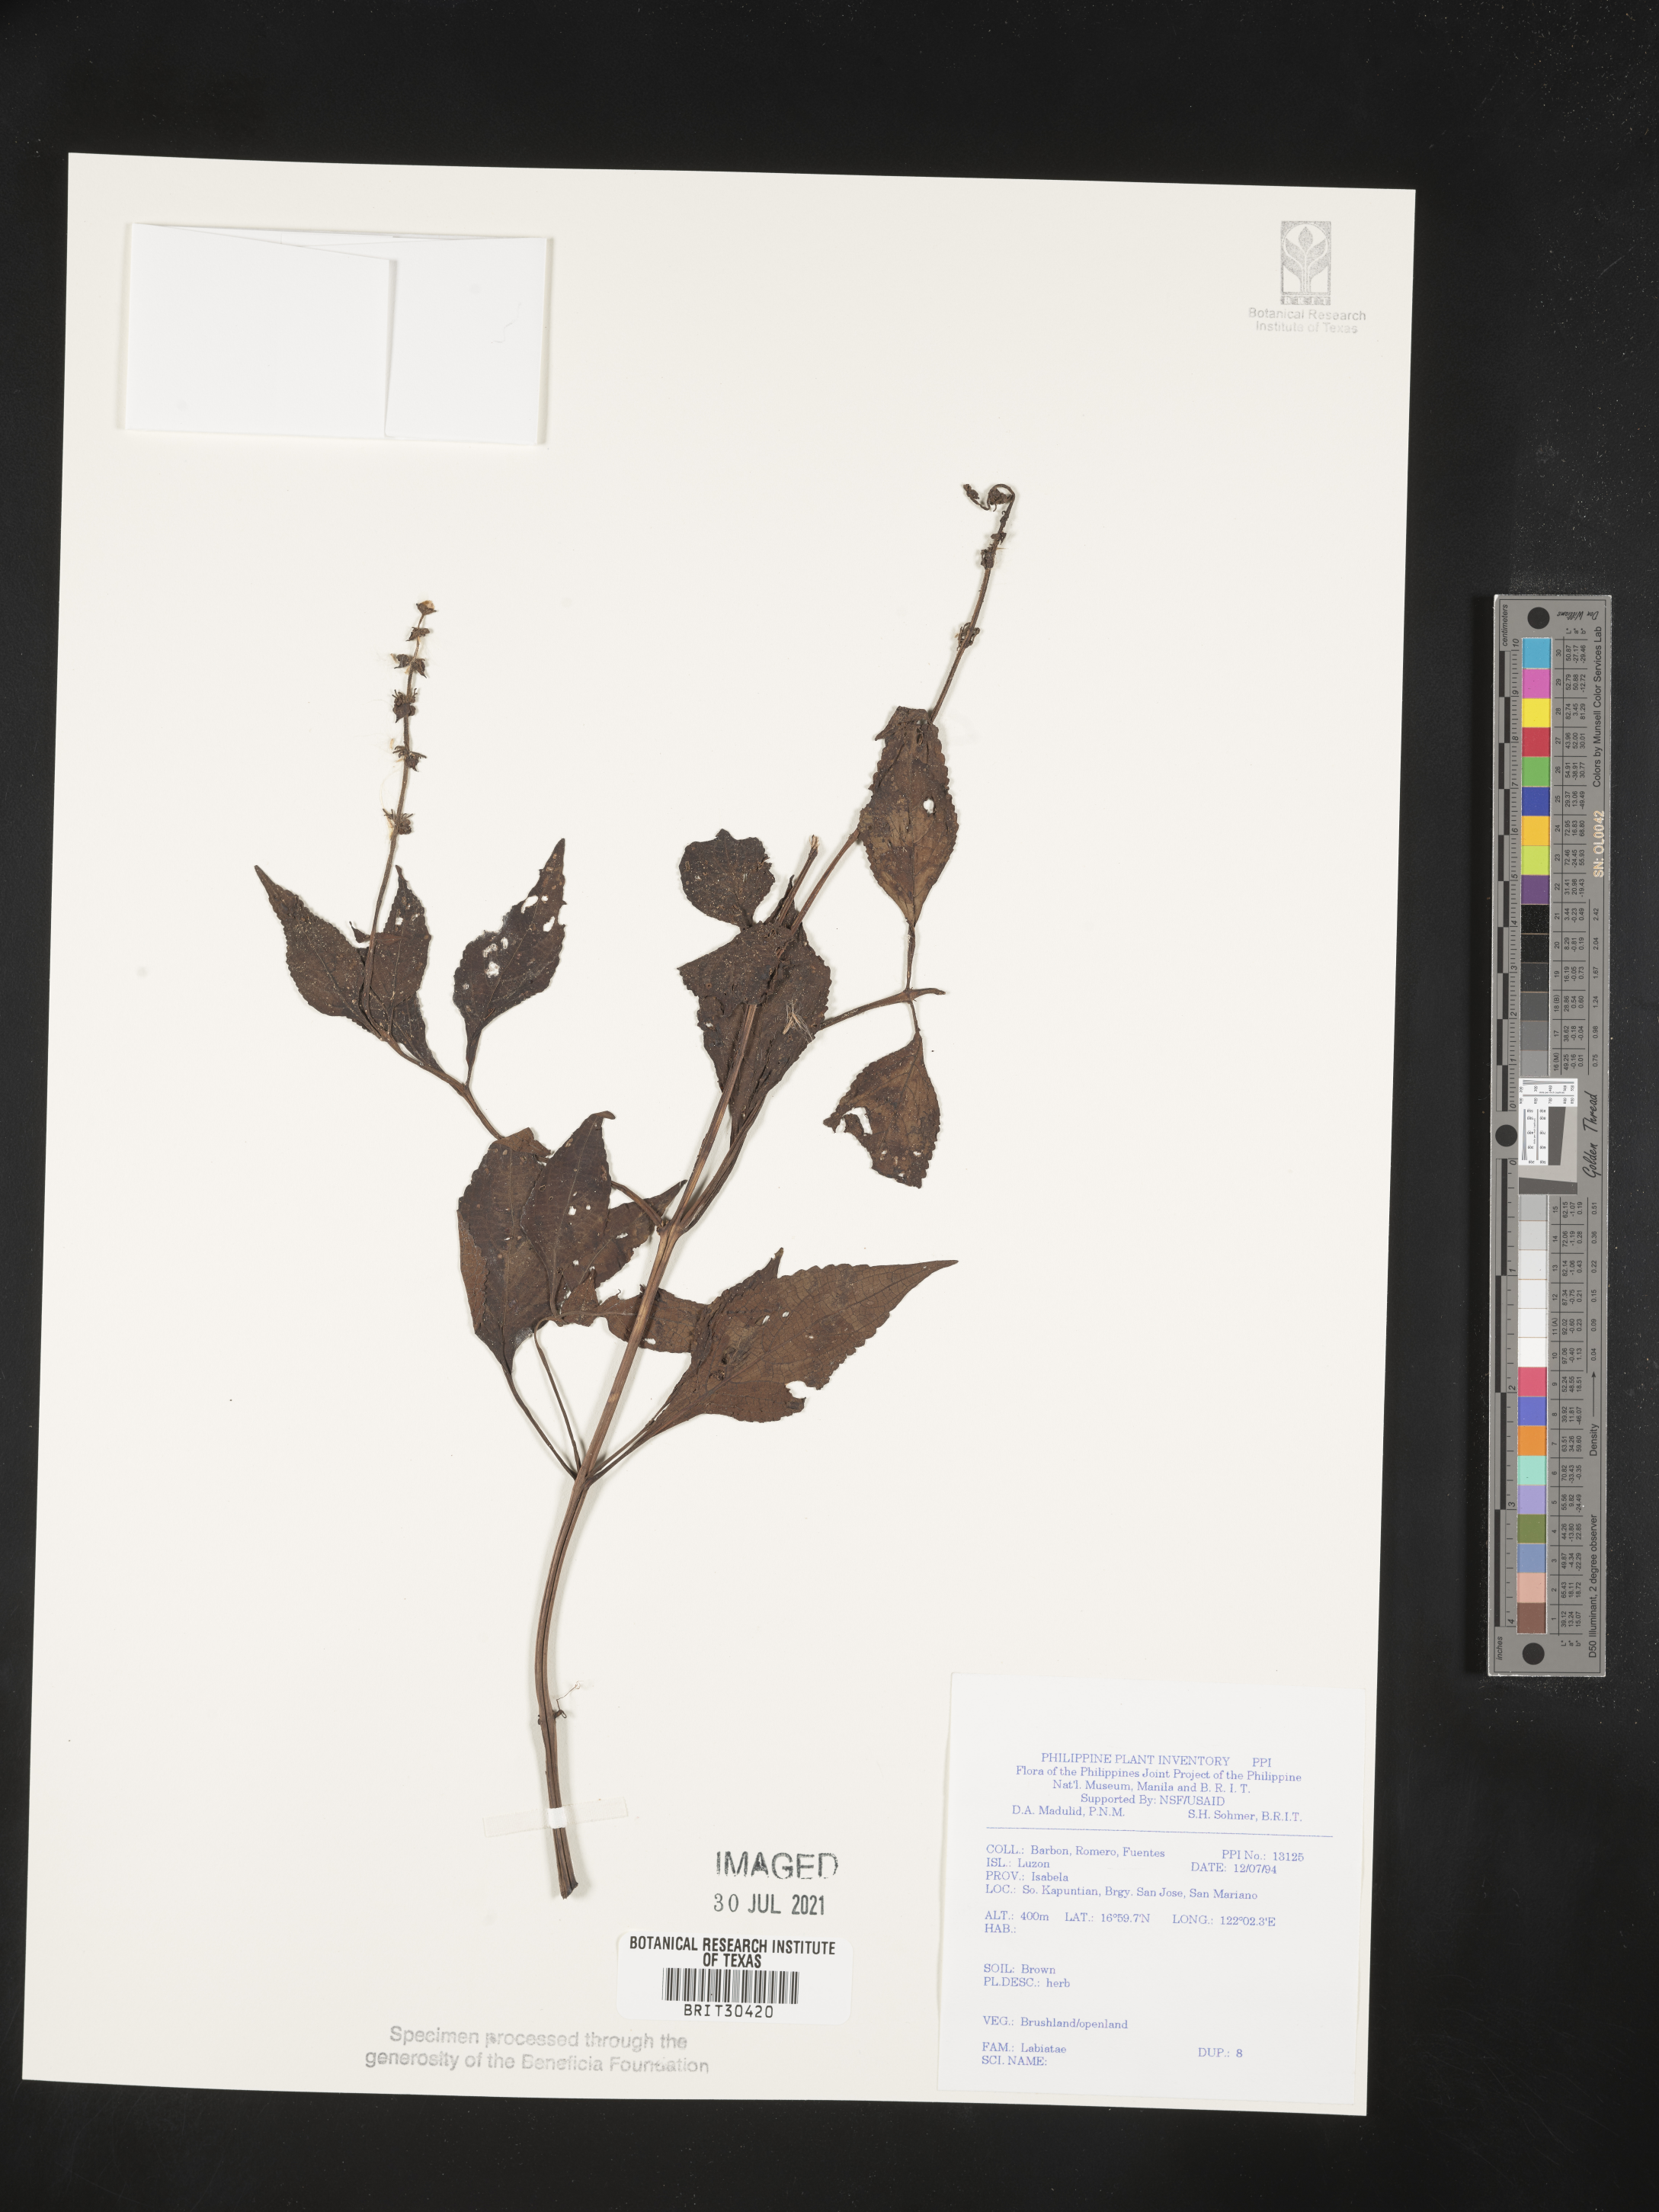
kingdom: Plantae
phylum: Tracheophyta
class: Magnoliopsida
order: Lamiales
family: Lamiaceae
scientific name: Lamiaceae
